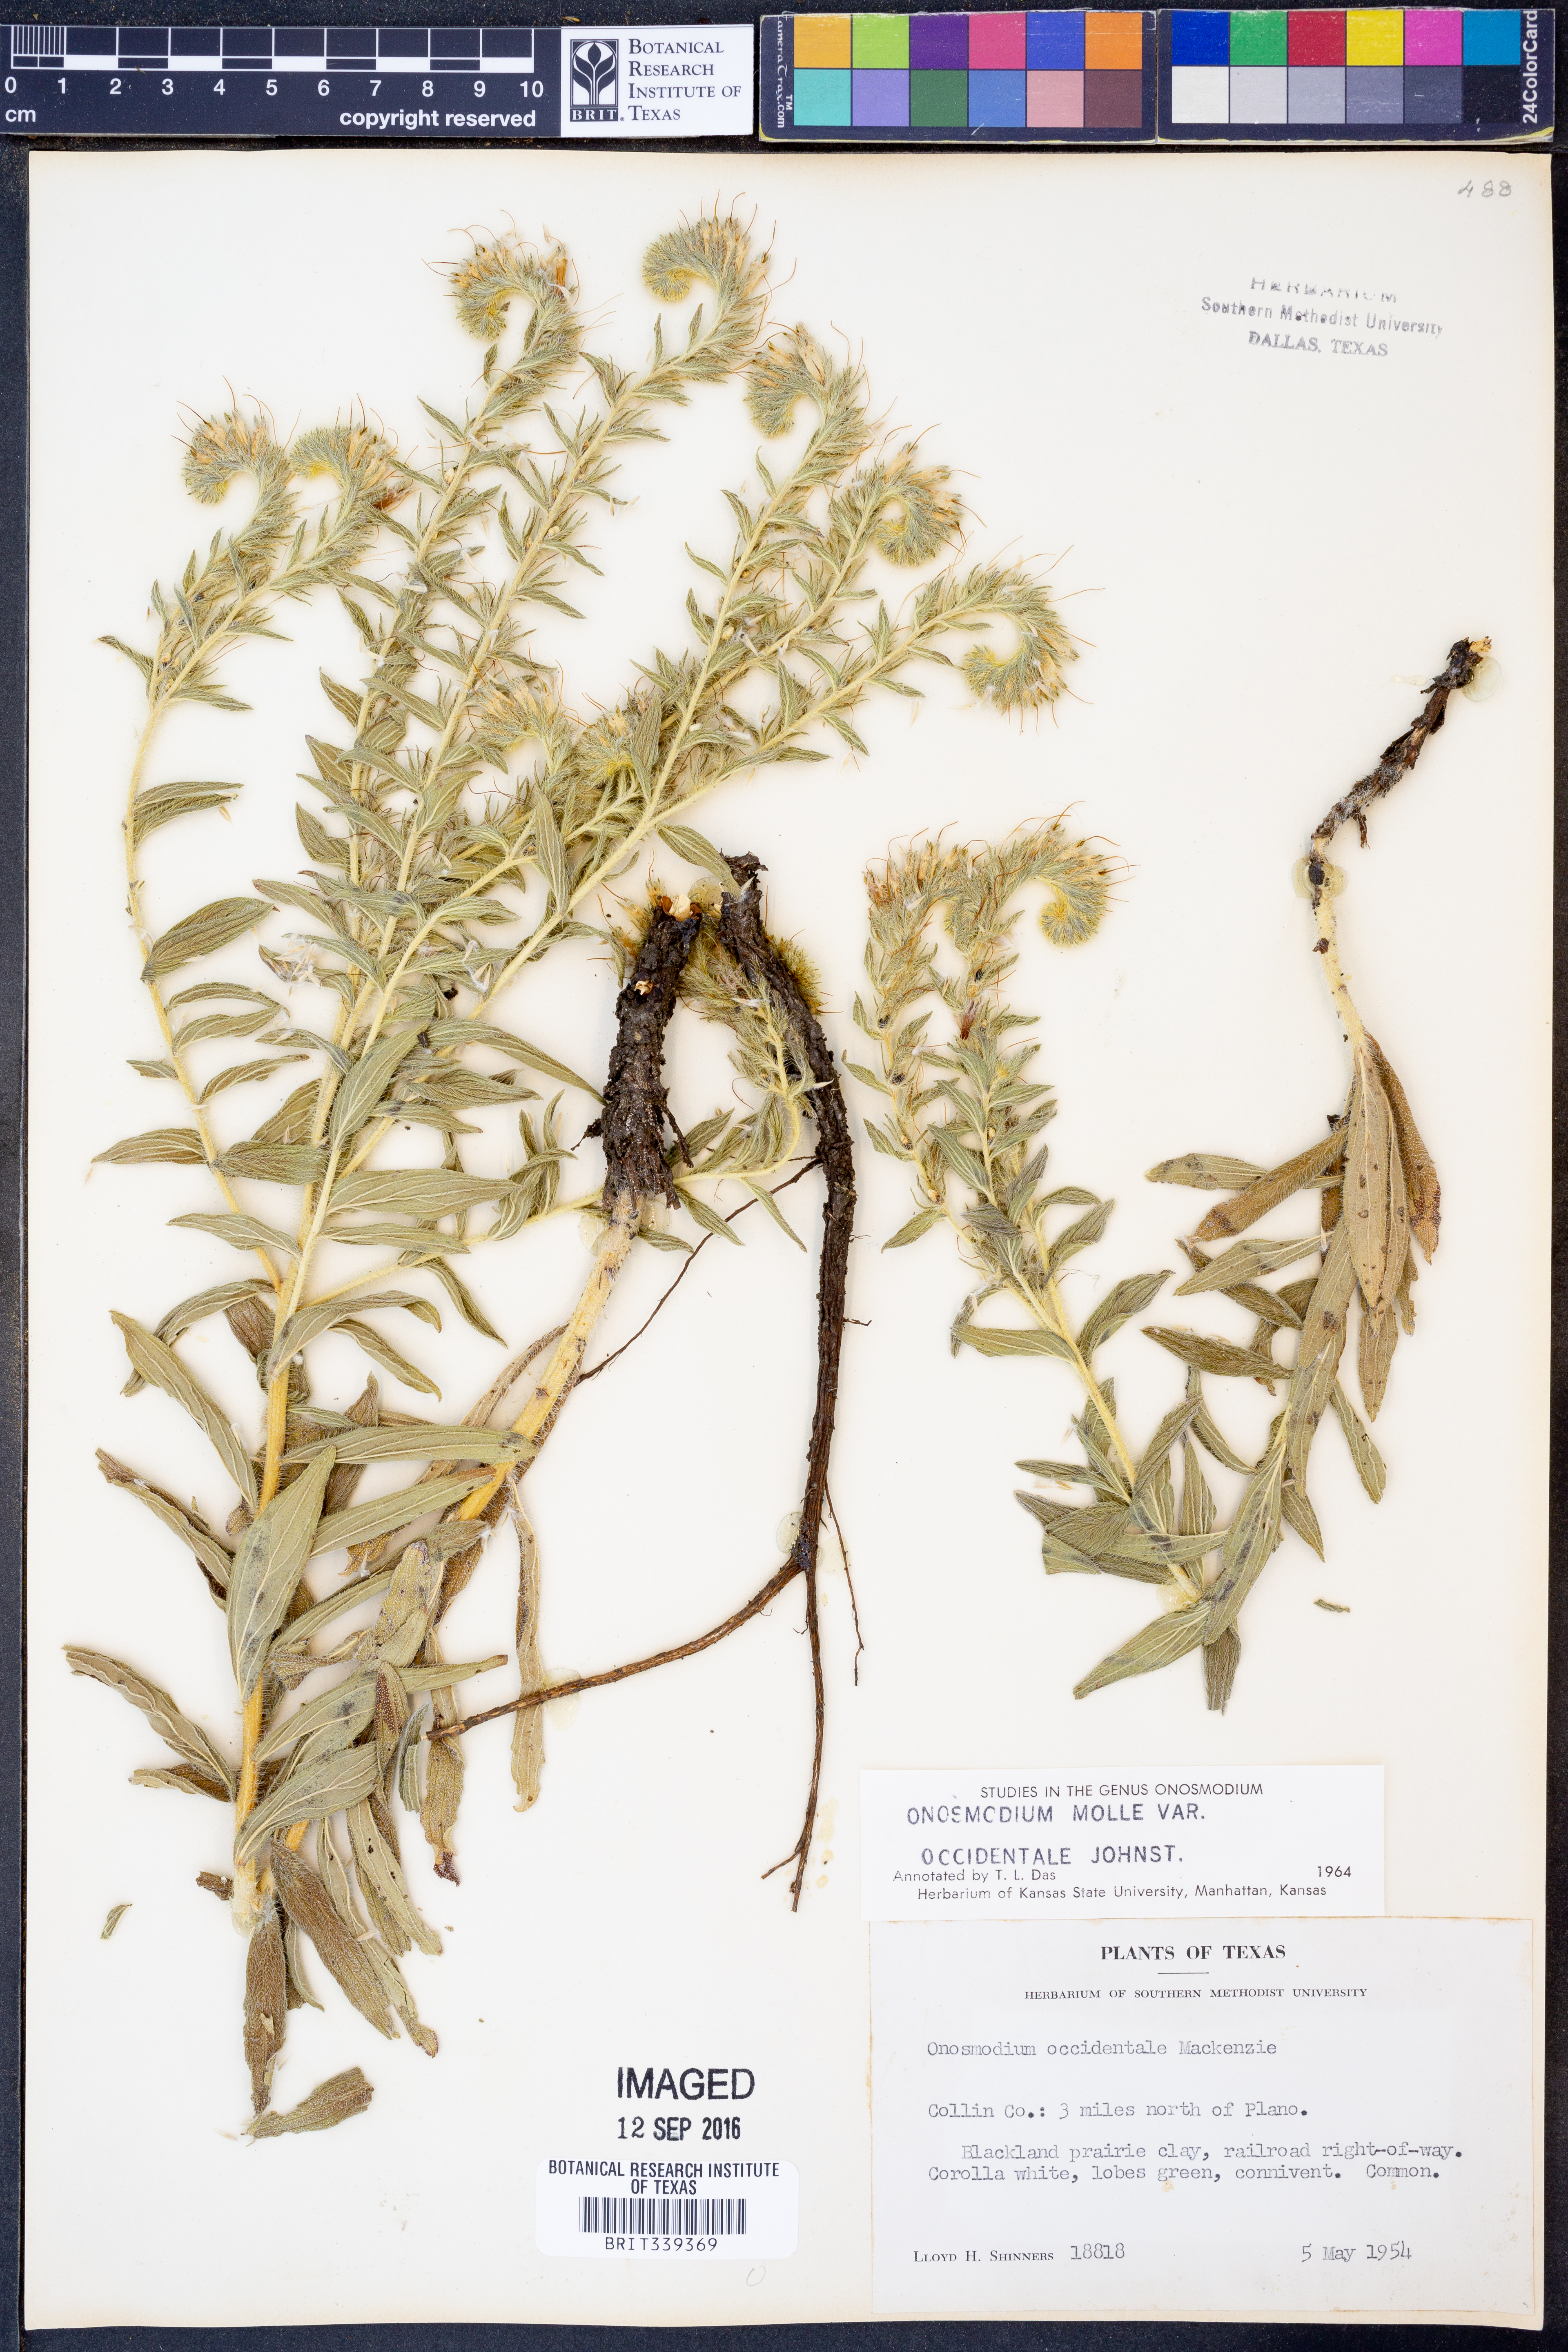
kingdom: Plantae
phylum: Tracheophyta
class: Magnoliopsida
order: Boraginales
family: Boraginaceae
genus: Lithospermum
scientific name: Lithospermum occidentale
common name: Western false gromwell
